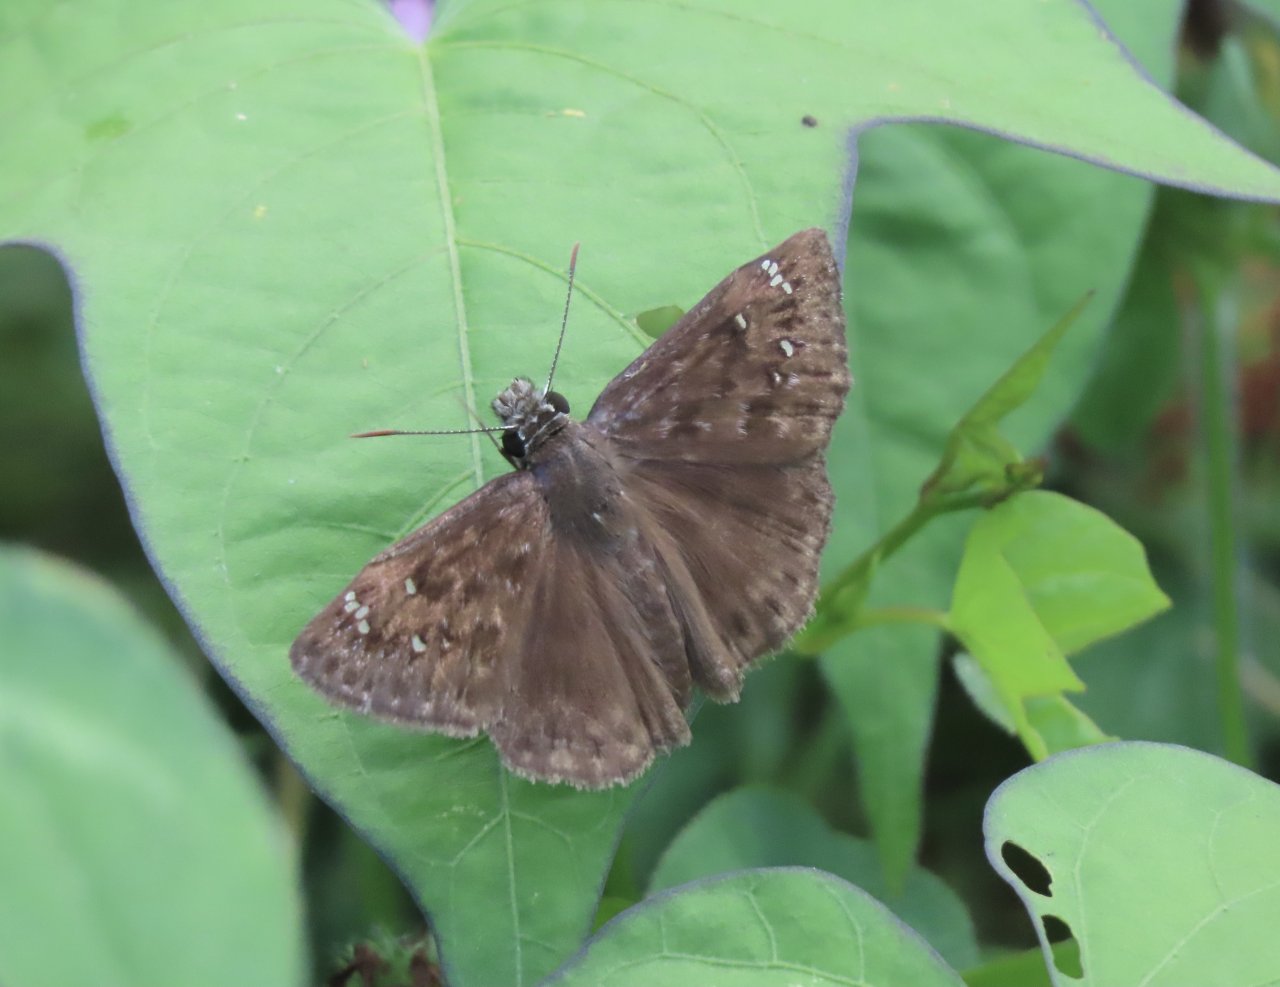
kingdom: Animalia
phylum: Arthropoda
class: Insecta
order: Lepidoptera
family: Hesperiidae
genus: Gesta
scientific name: Gesta
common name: Horace's Duskywing
